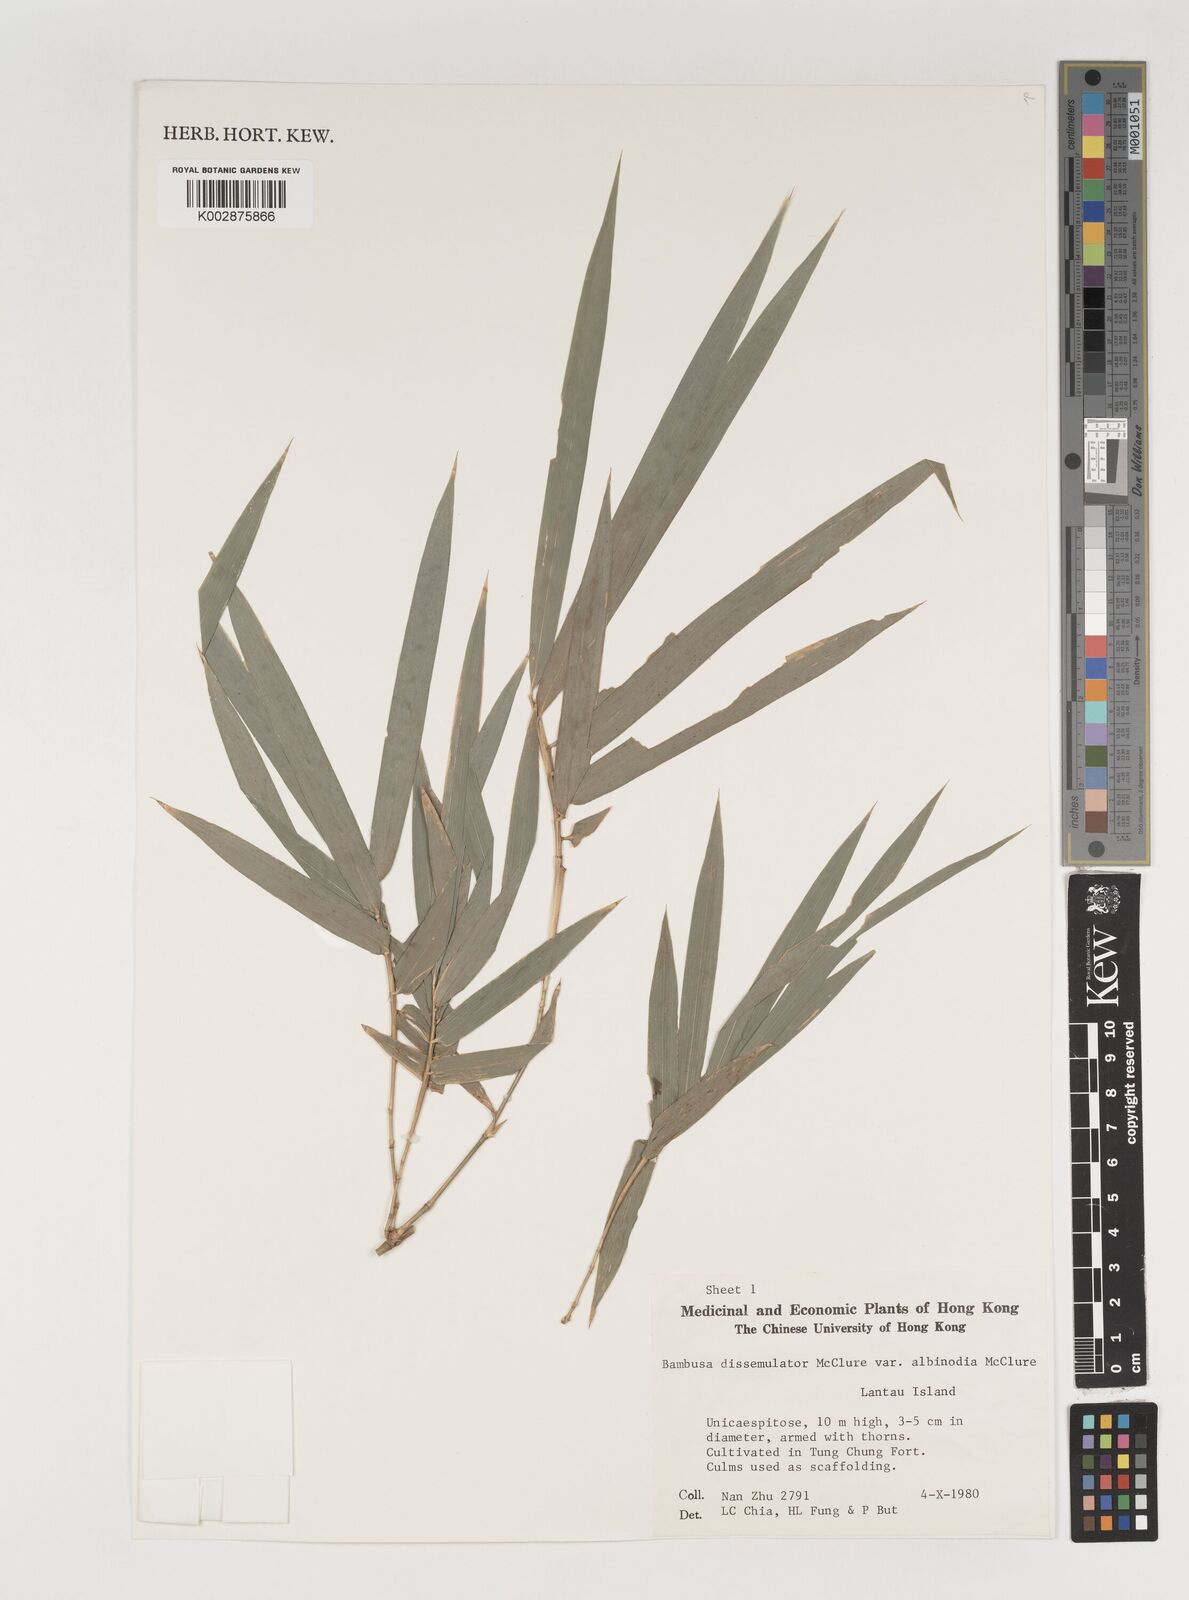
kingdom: Plantae
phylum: Tracheophyta
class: Liliopsida
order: Poales
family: Poaceae
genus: Bambusa
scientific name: Bambusa dissimulator
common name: Muddy bamboo
